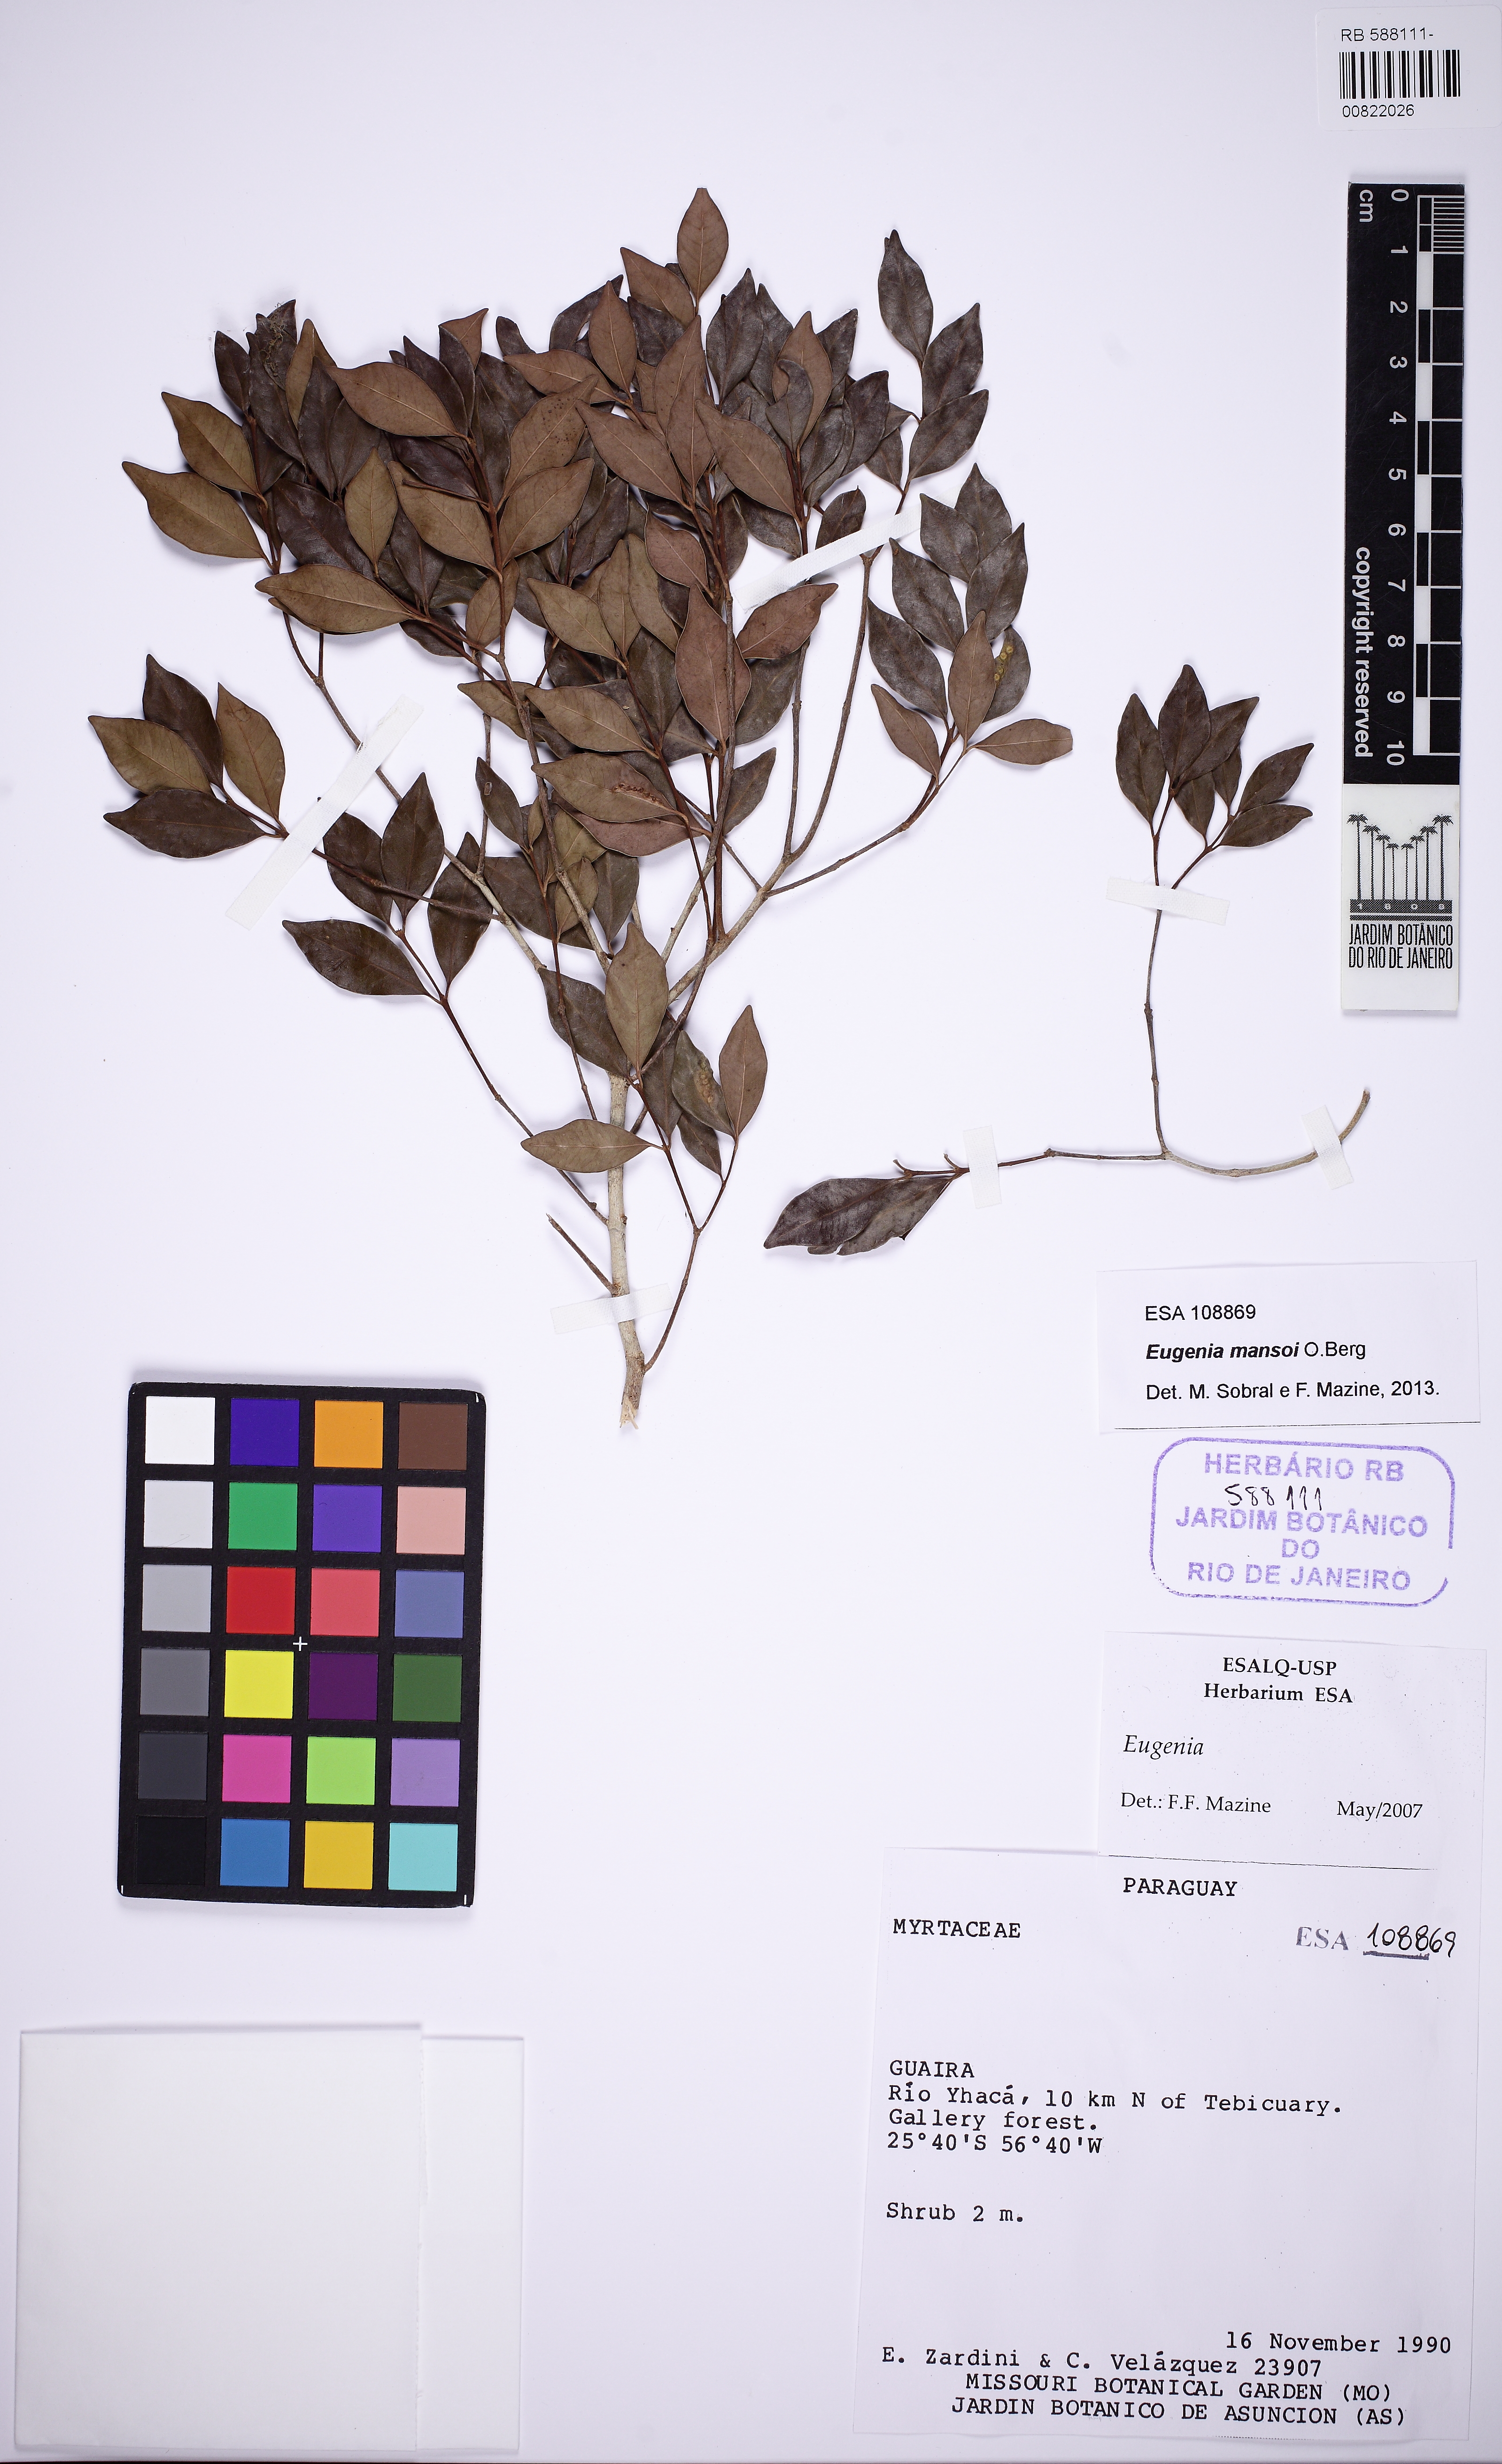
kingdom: Plantae
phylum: Tracheophyta
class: Magnoliopsida
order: Myrtales
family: Myrtaceae
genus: Eugenia
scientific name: Eugenia mansoi
